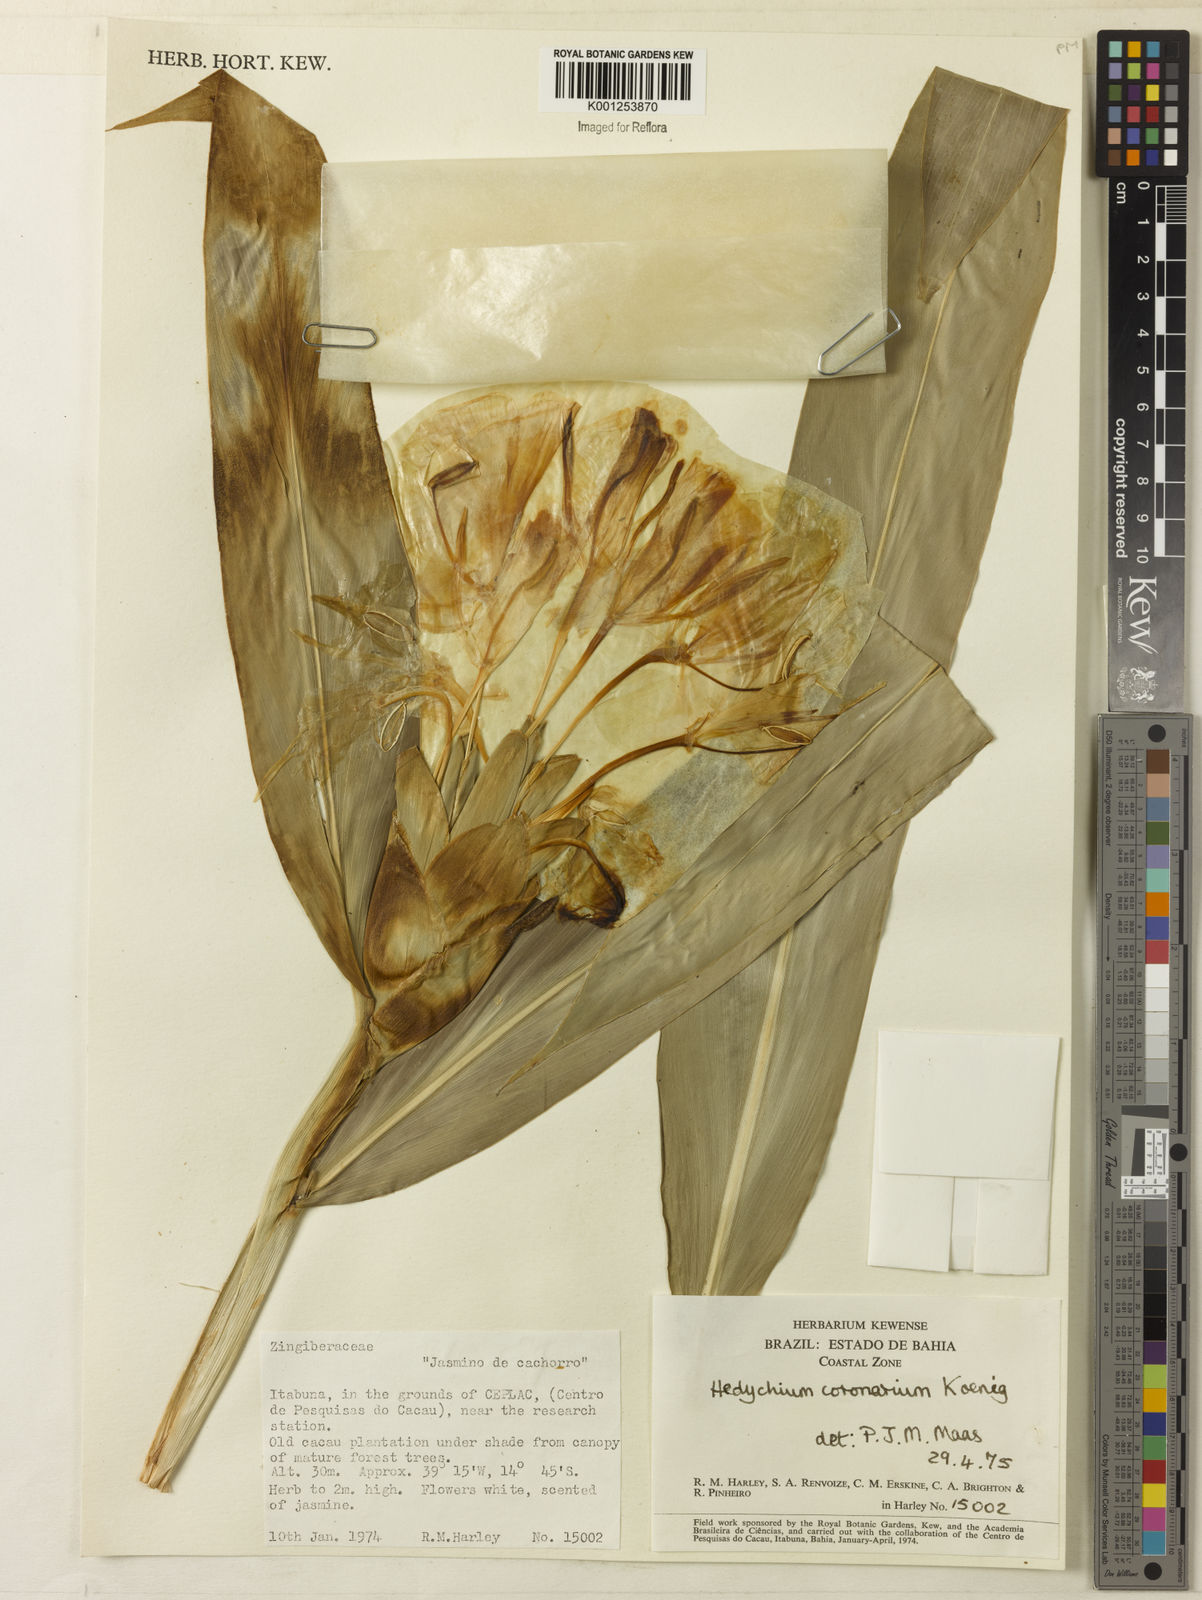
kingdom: Plantae
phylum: Tracheophyta
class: Liliopsida
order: Zingiberales
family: Zingiberaceae
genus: Hedychium
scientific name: Hedychium coronarium
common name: White garland-lily
